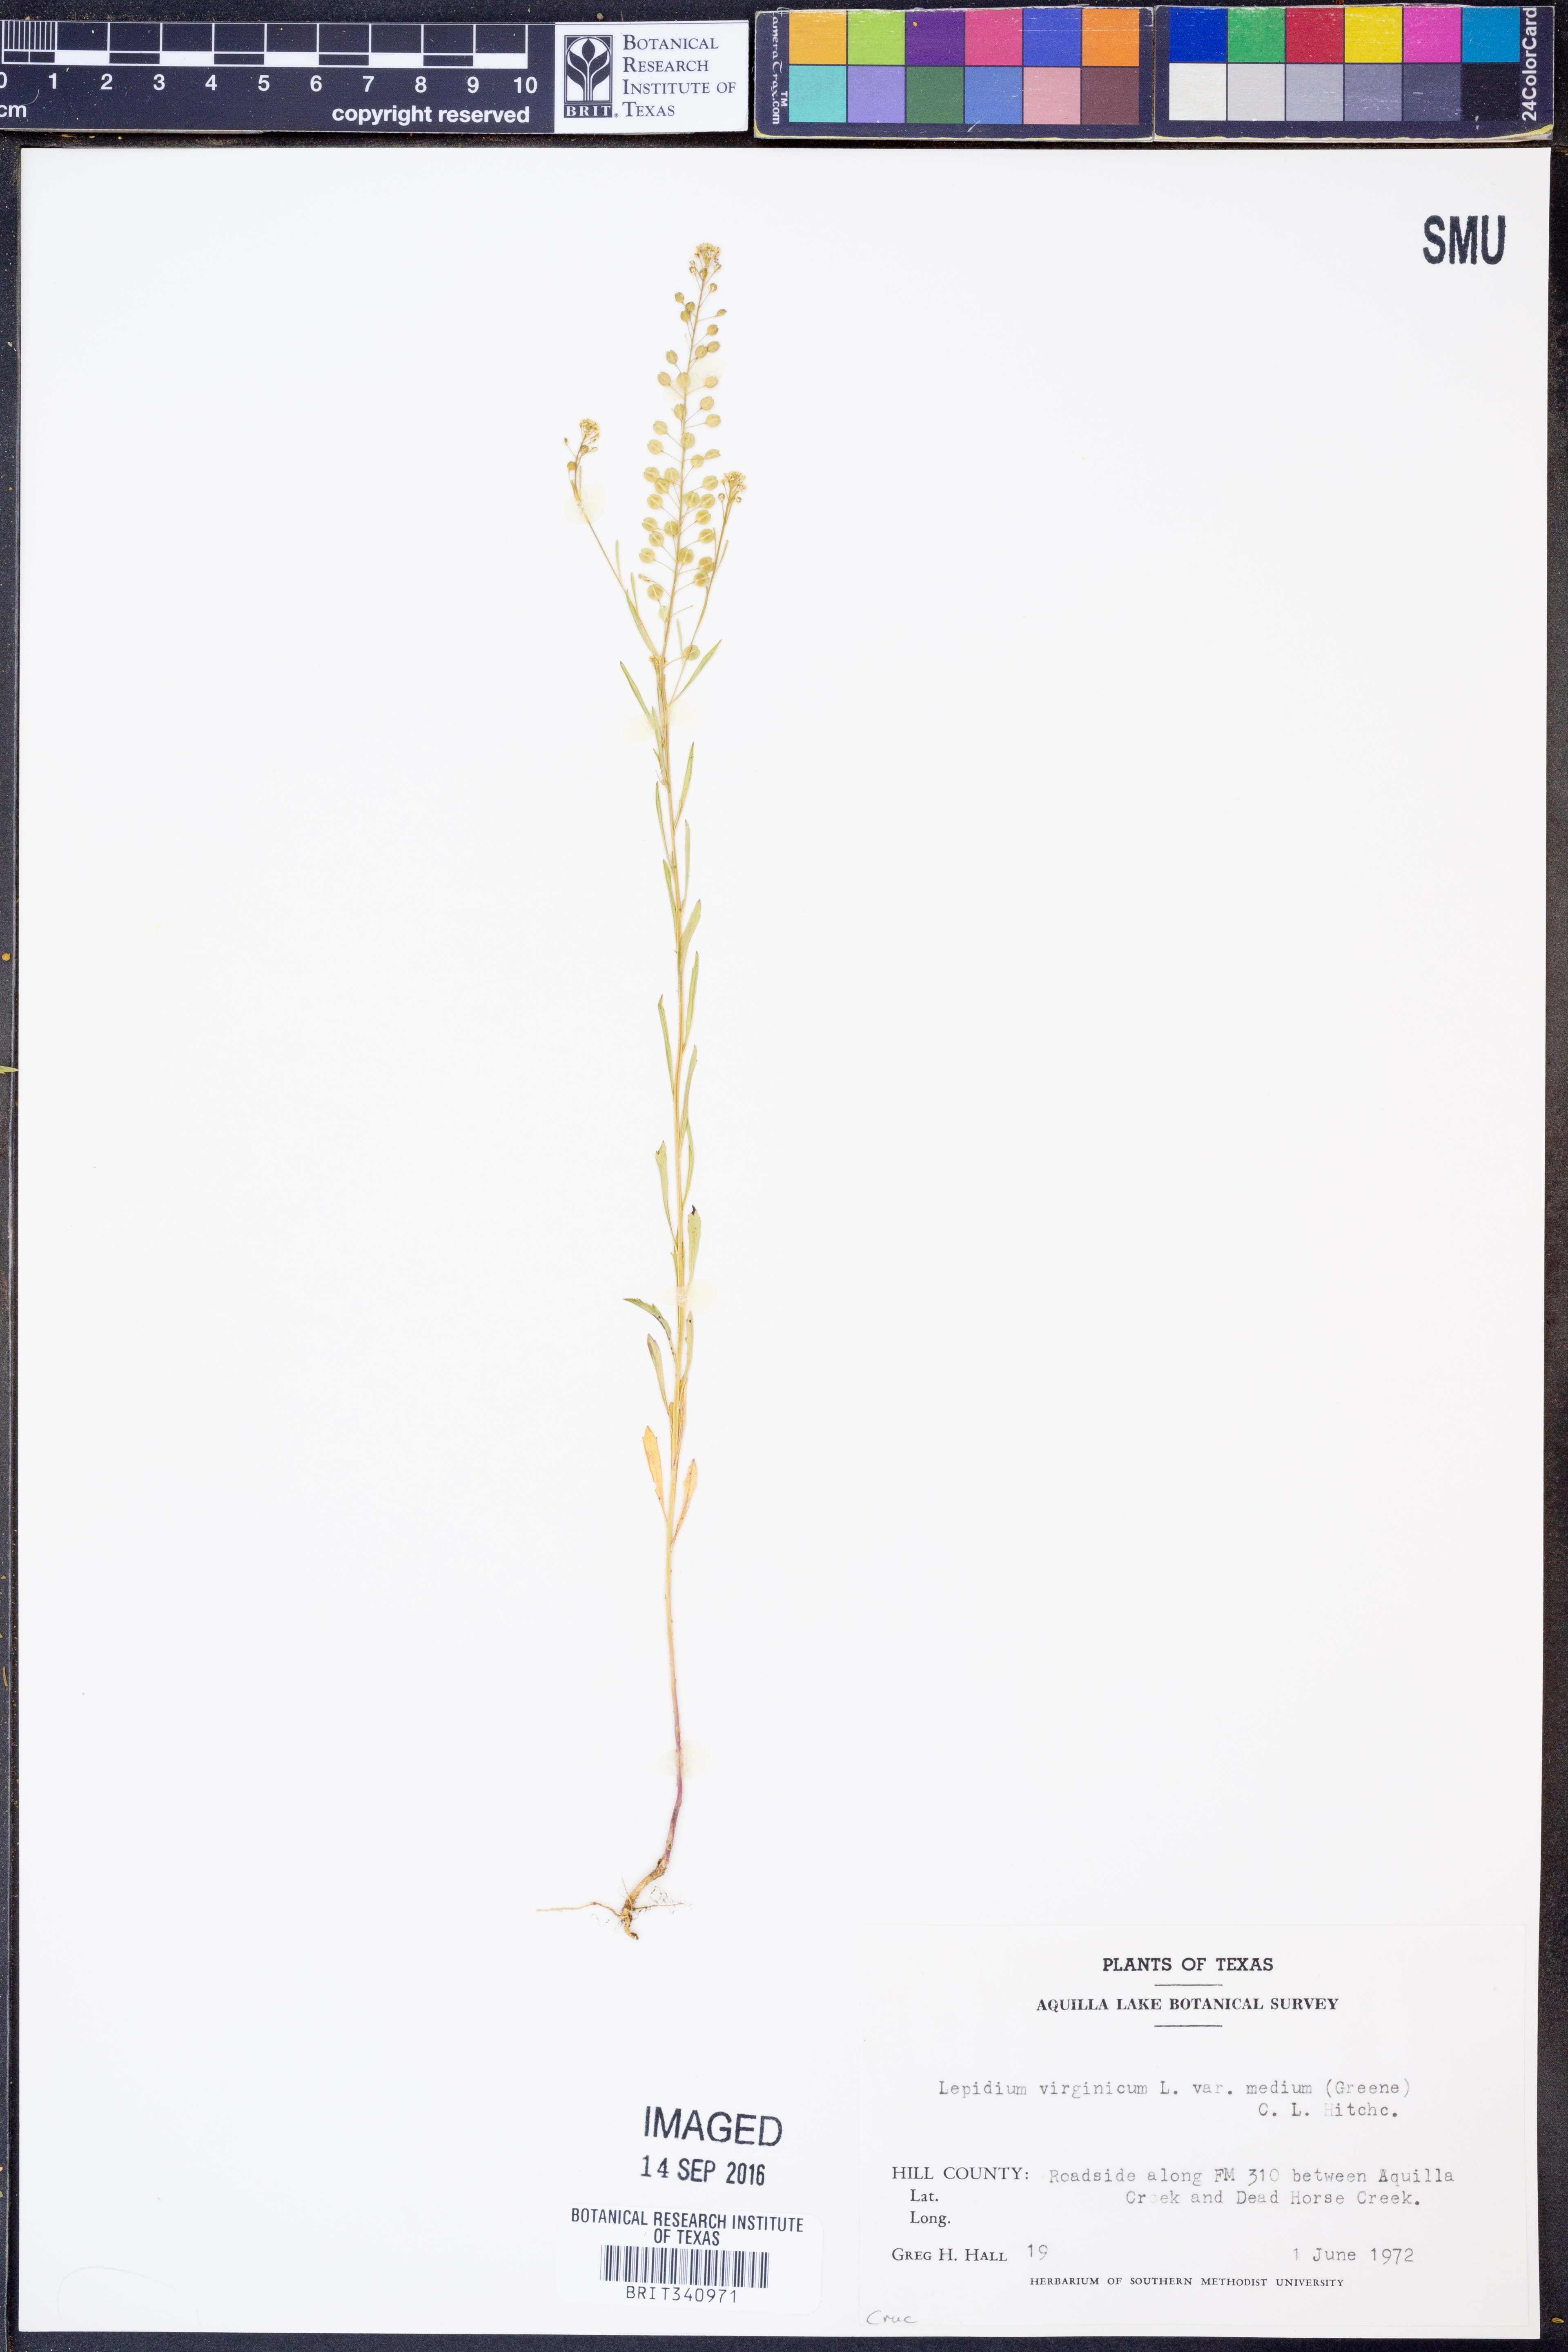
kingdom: Plantae
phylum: Tracheophyta
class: Magnoliopsida
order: Brassicales
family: Brassicaceae
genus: Lepidium
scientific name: Lepidium virginicum
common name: Least pepperwort
